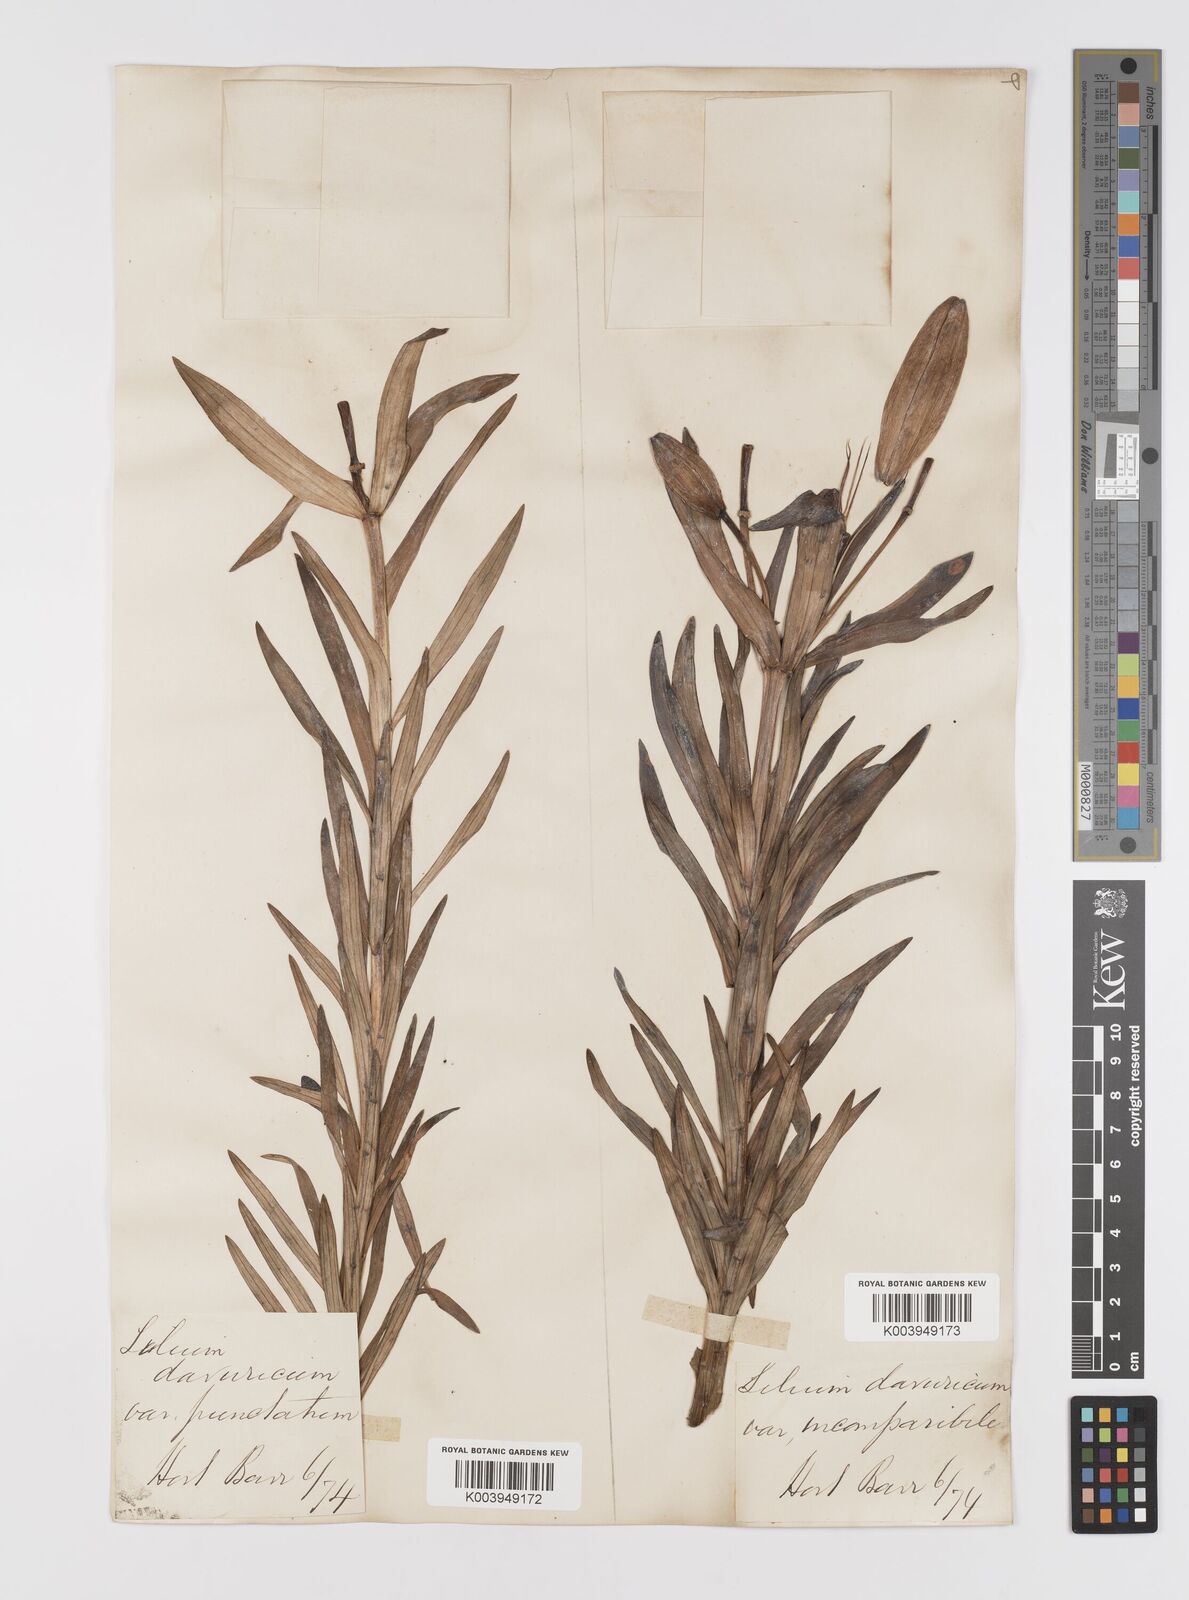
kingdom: Plantae
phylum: Tracheophyta
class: Liliopsida
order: Liliales
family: Liliaceae
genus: Lilium
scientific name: Lilium pensylvanicum
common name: Candlestick lily
